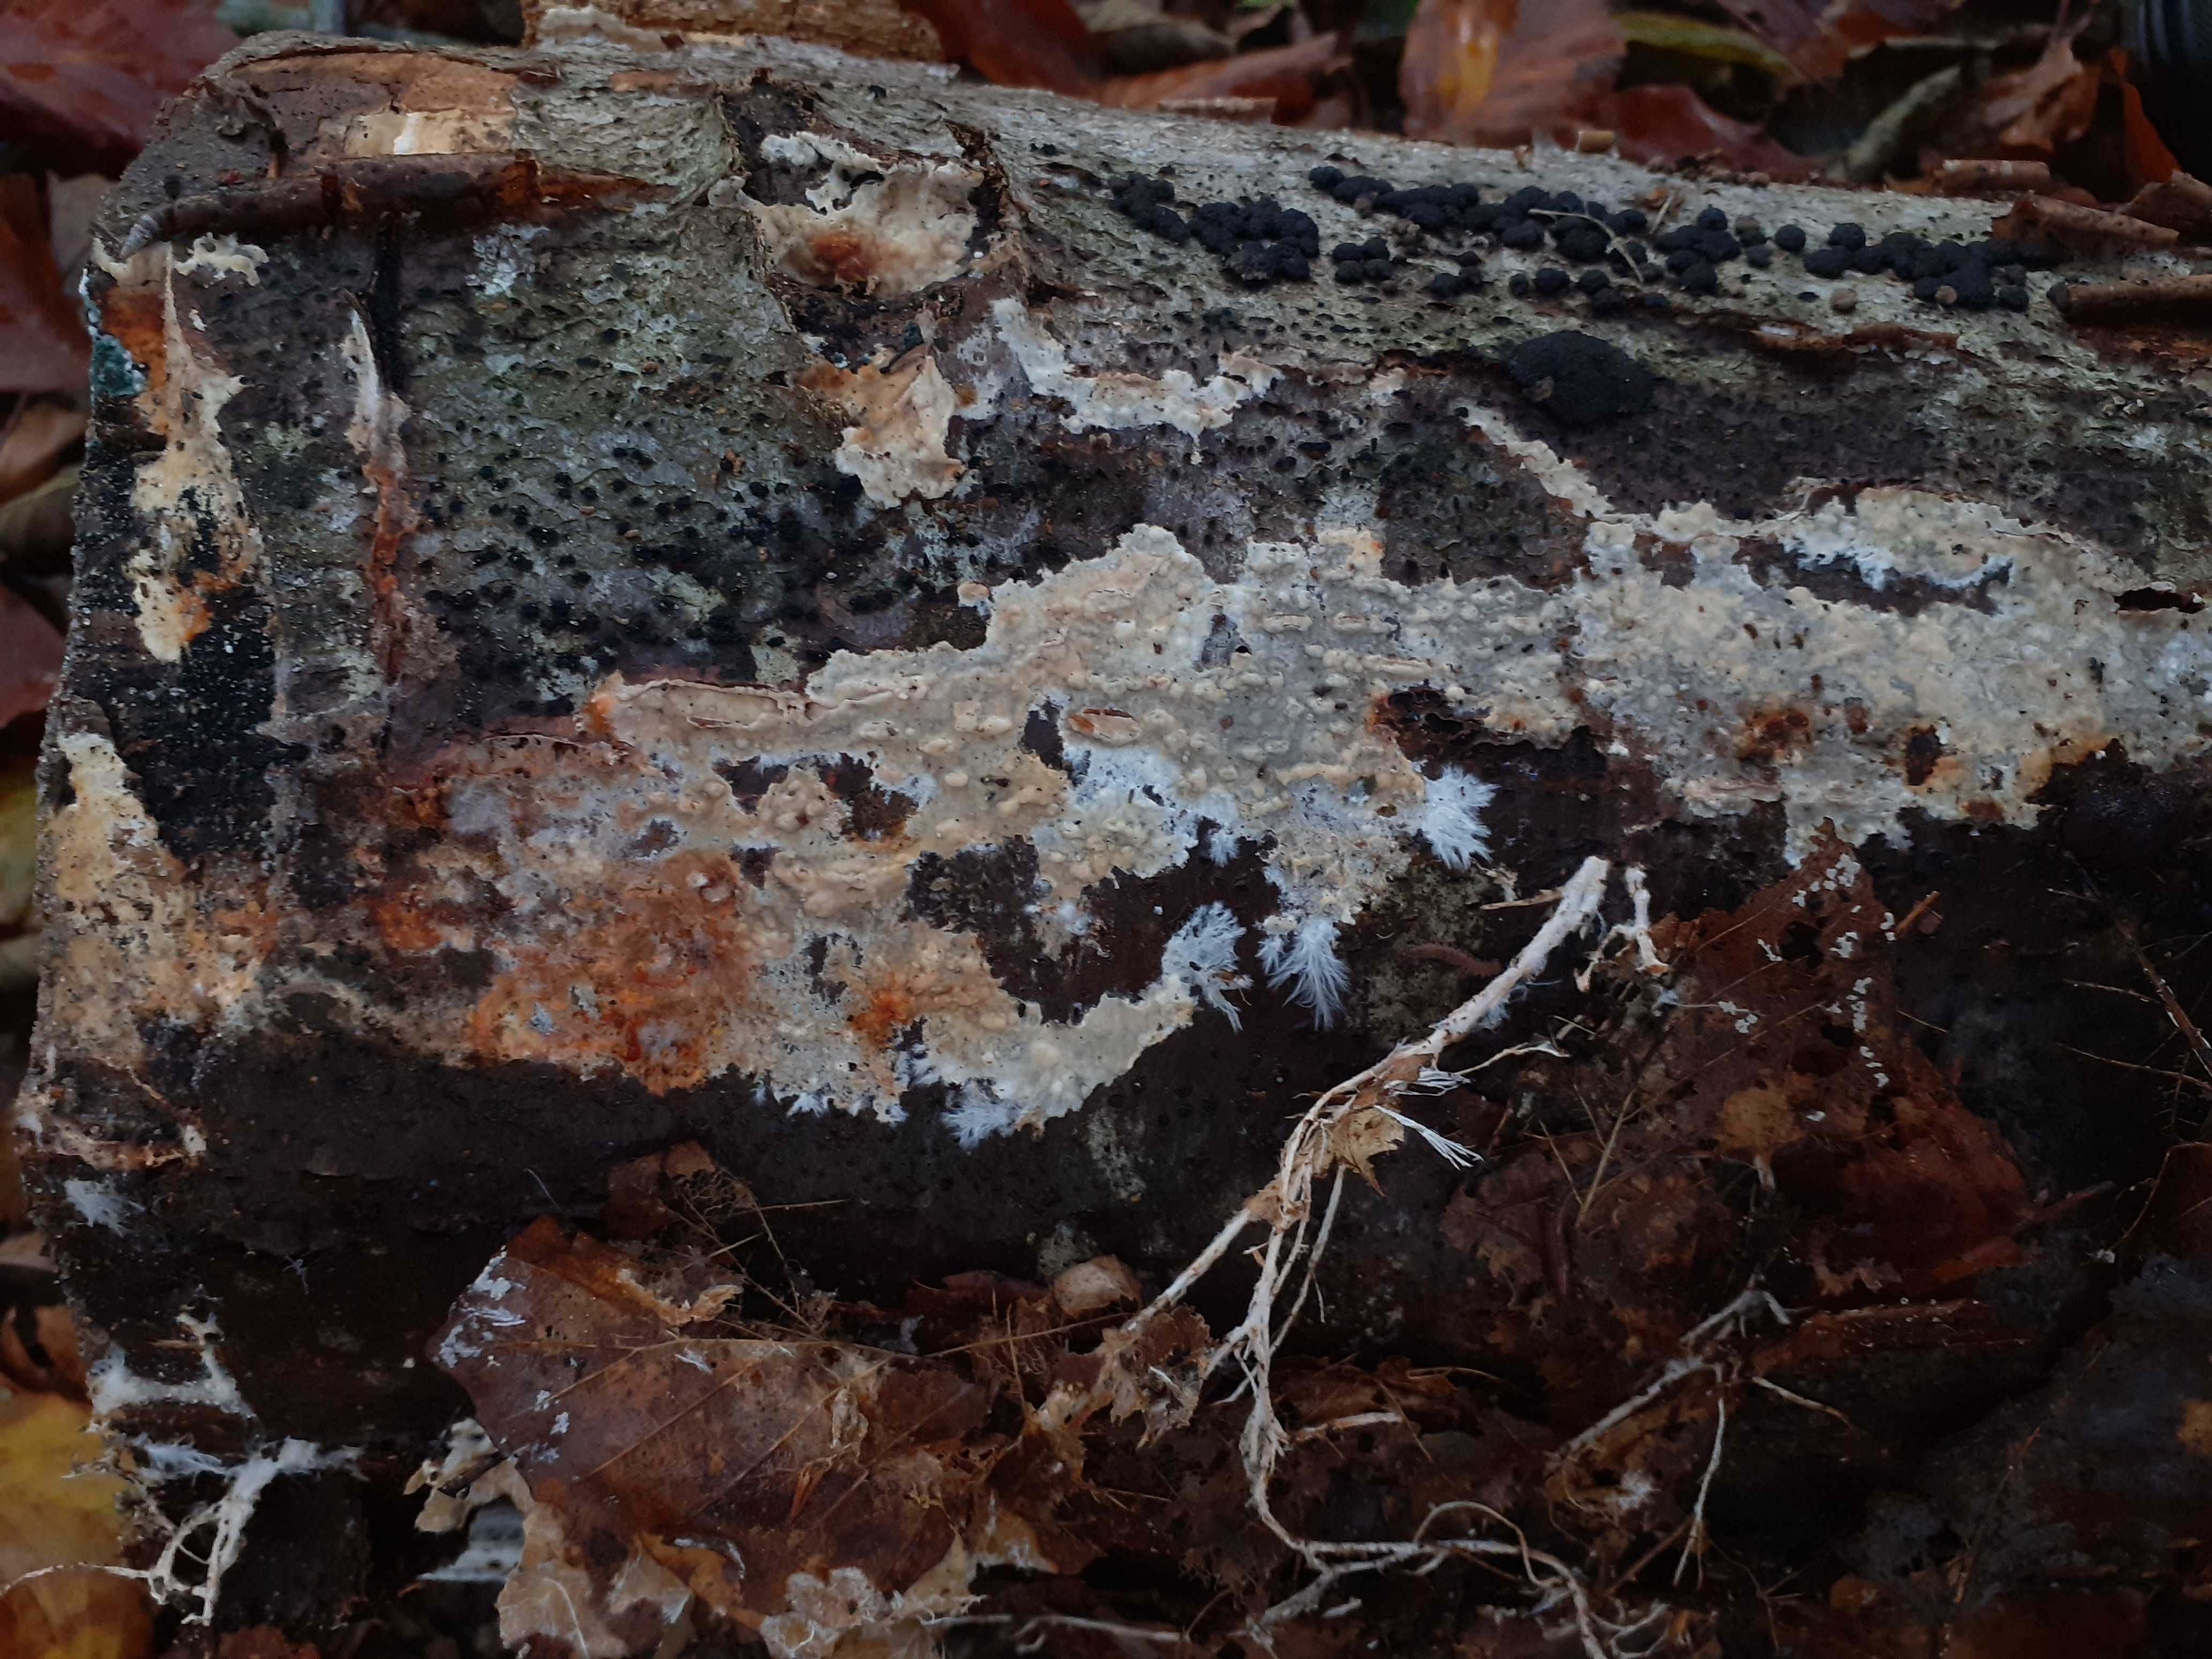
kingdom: Fungi
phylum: Basidiomycota
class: Agaricomycetes
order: Polyporales
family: Phanerochaetaceae
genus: Phanerochaete
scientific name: Phanerochaete velutina
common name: dunet randtråd
